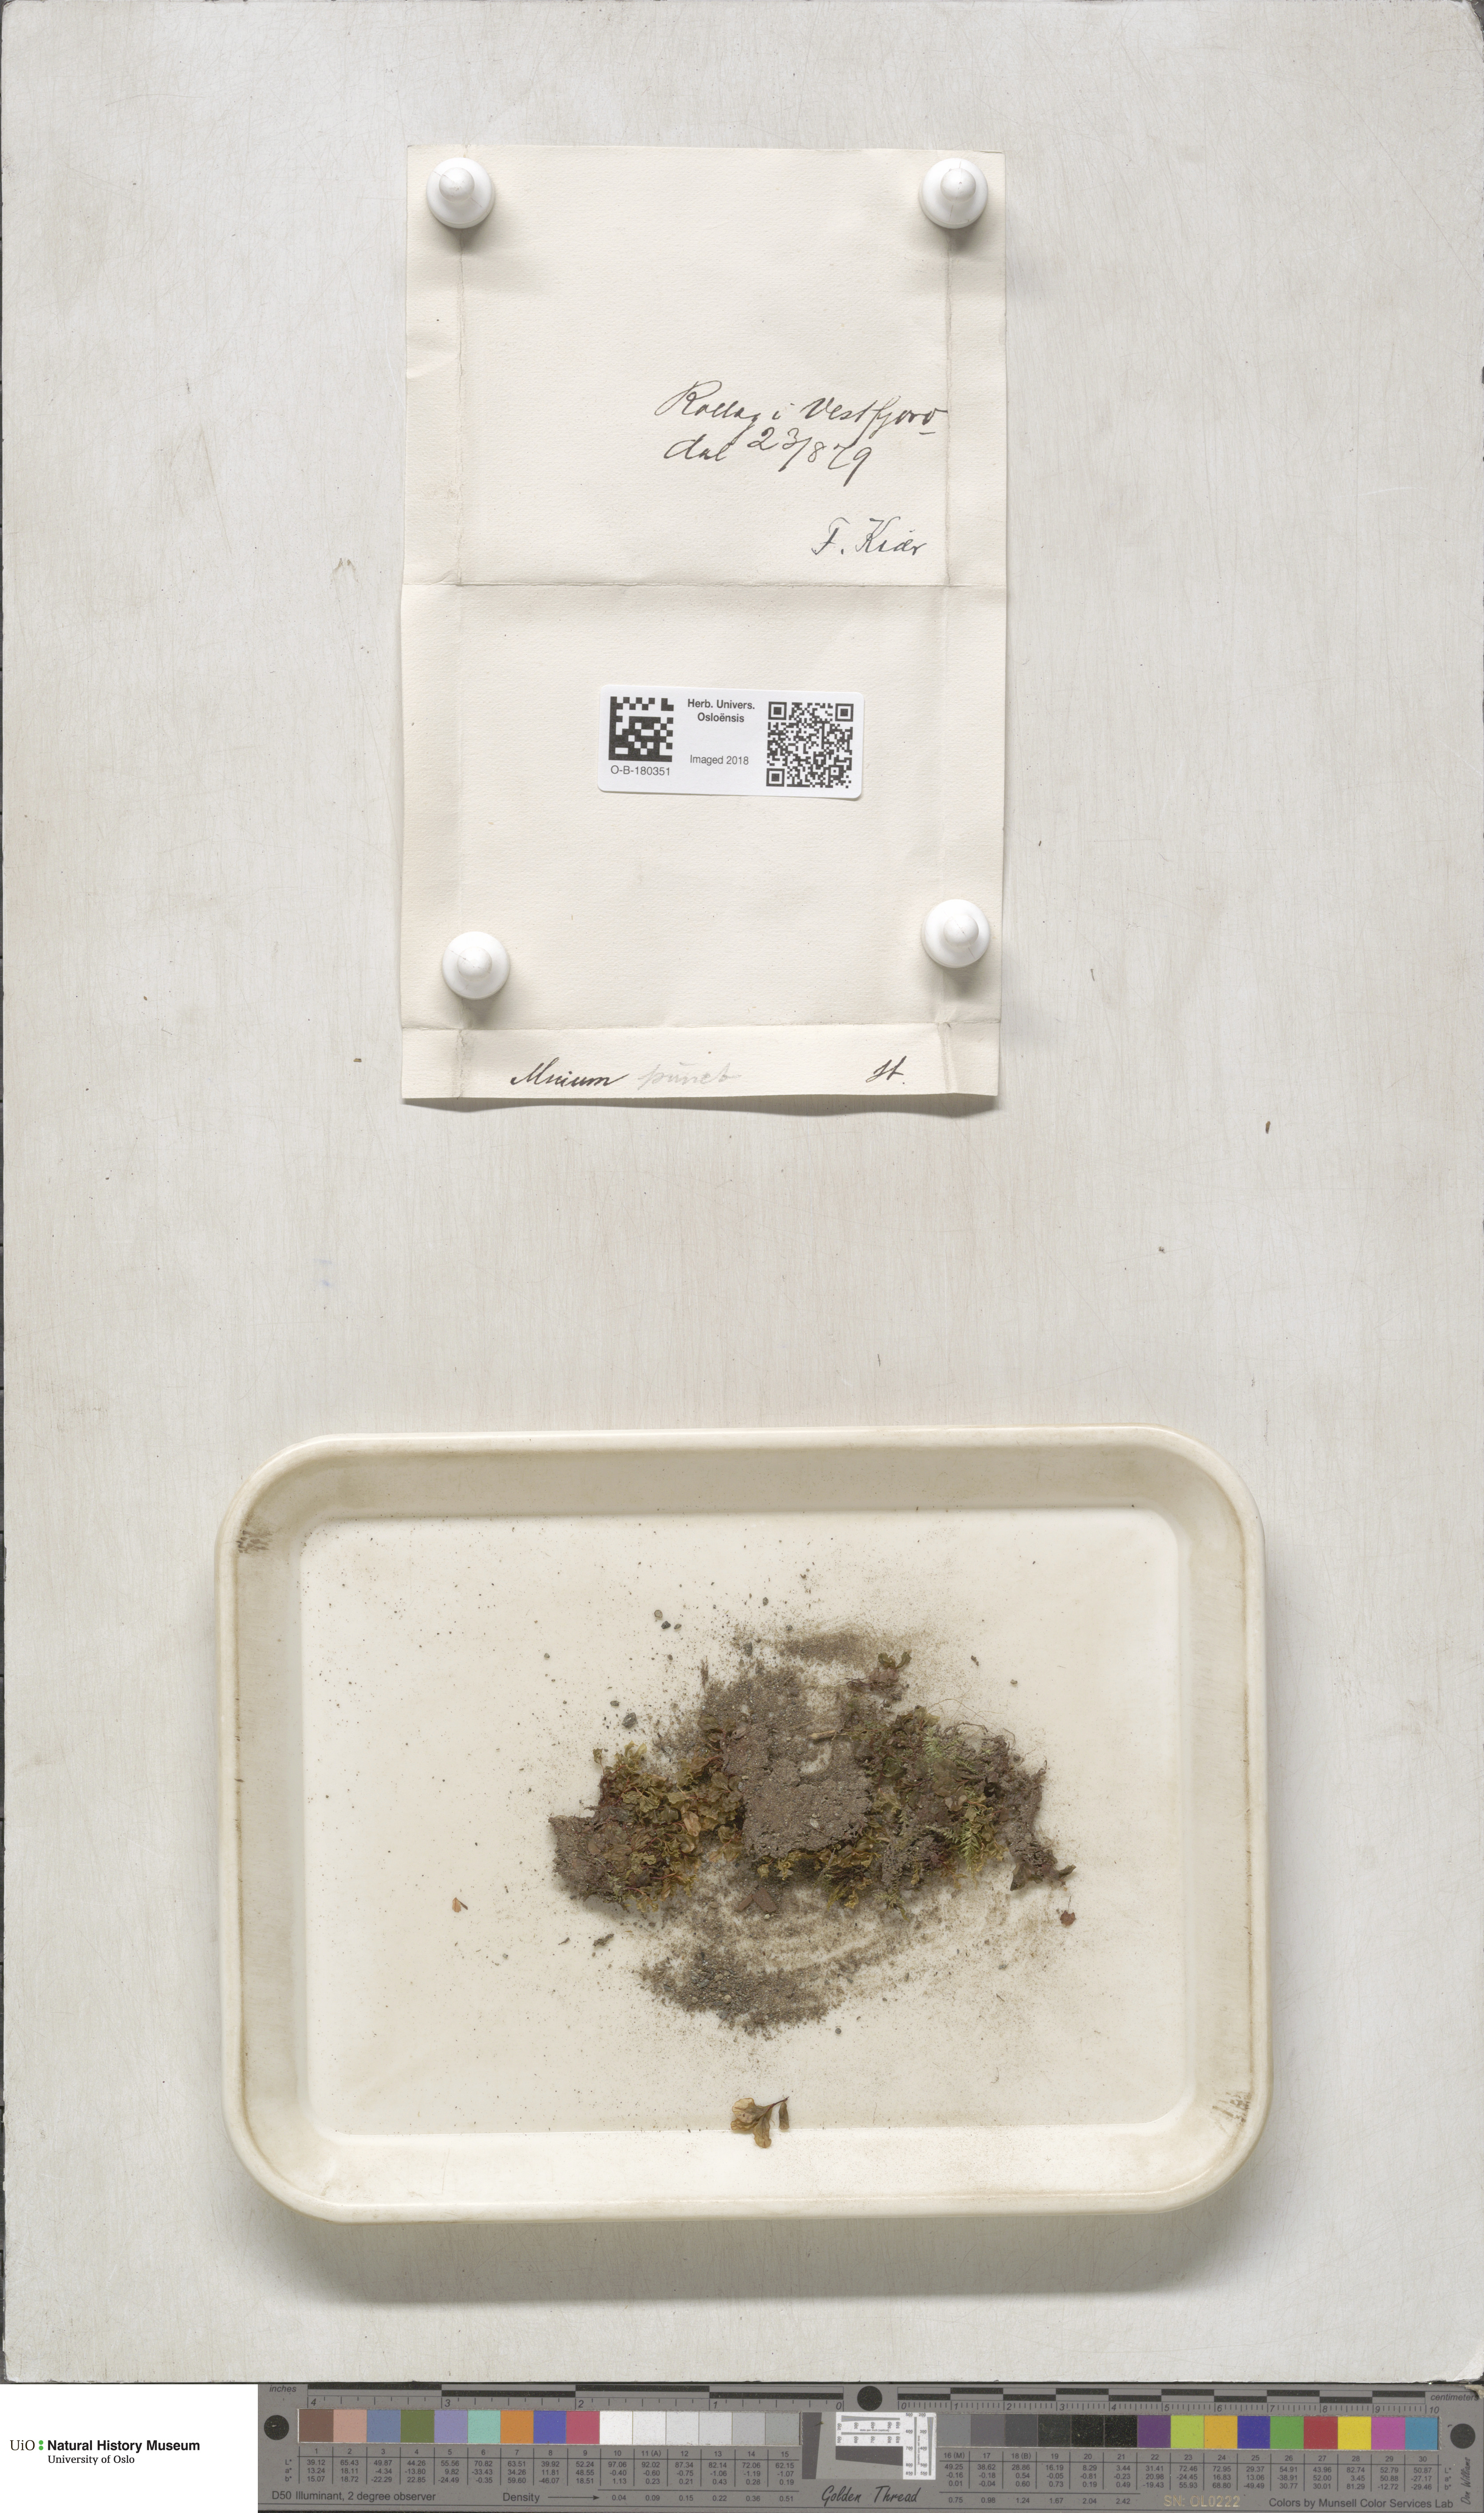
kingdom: Plantae
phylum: Bryophyta
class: Bryopsida
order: Bryales
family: Mniaceae
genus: Rhizomnium
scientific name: Rhizomnium punctatum
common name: Dotted leafy moss
